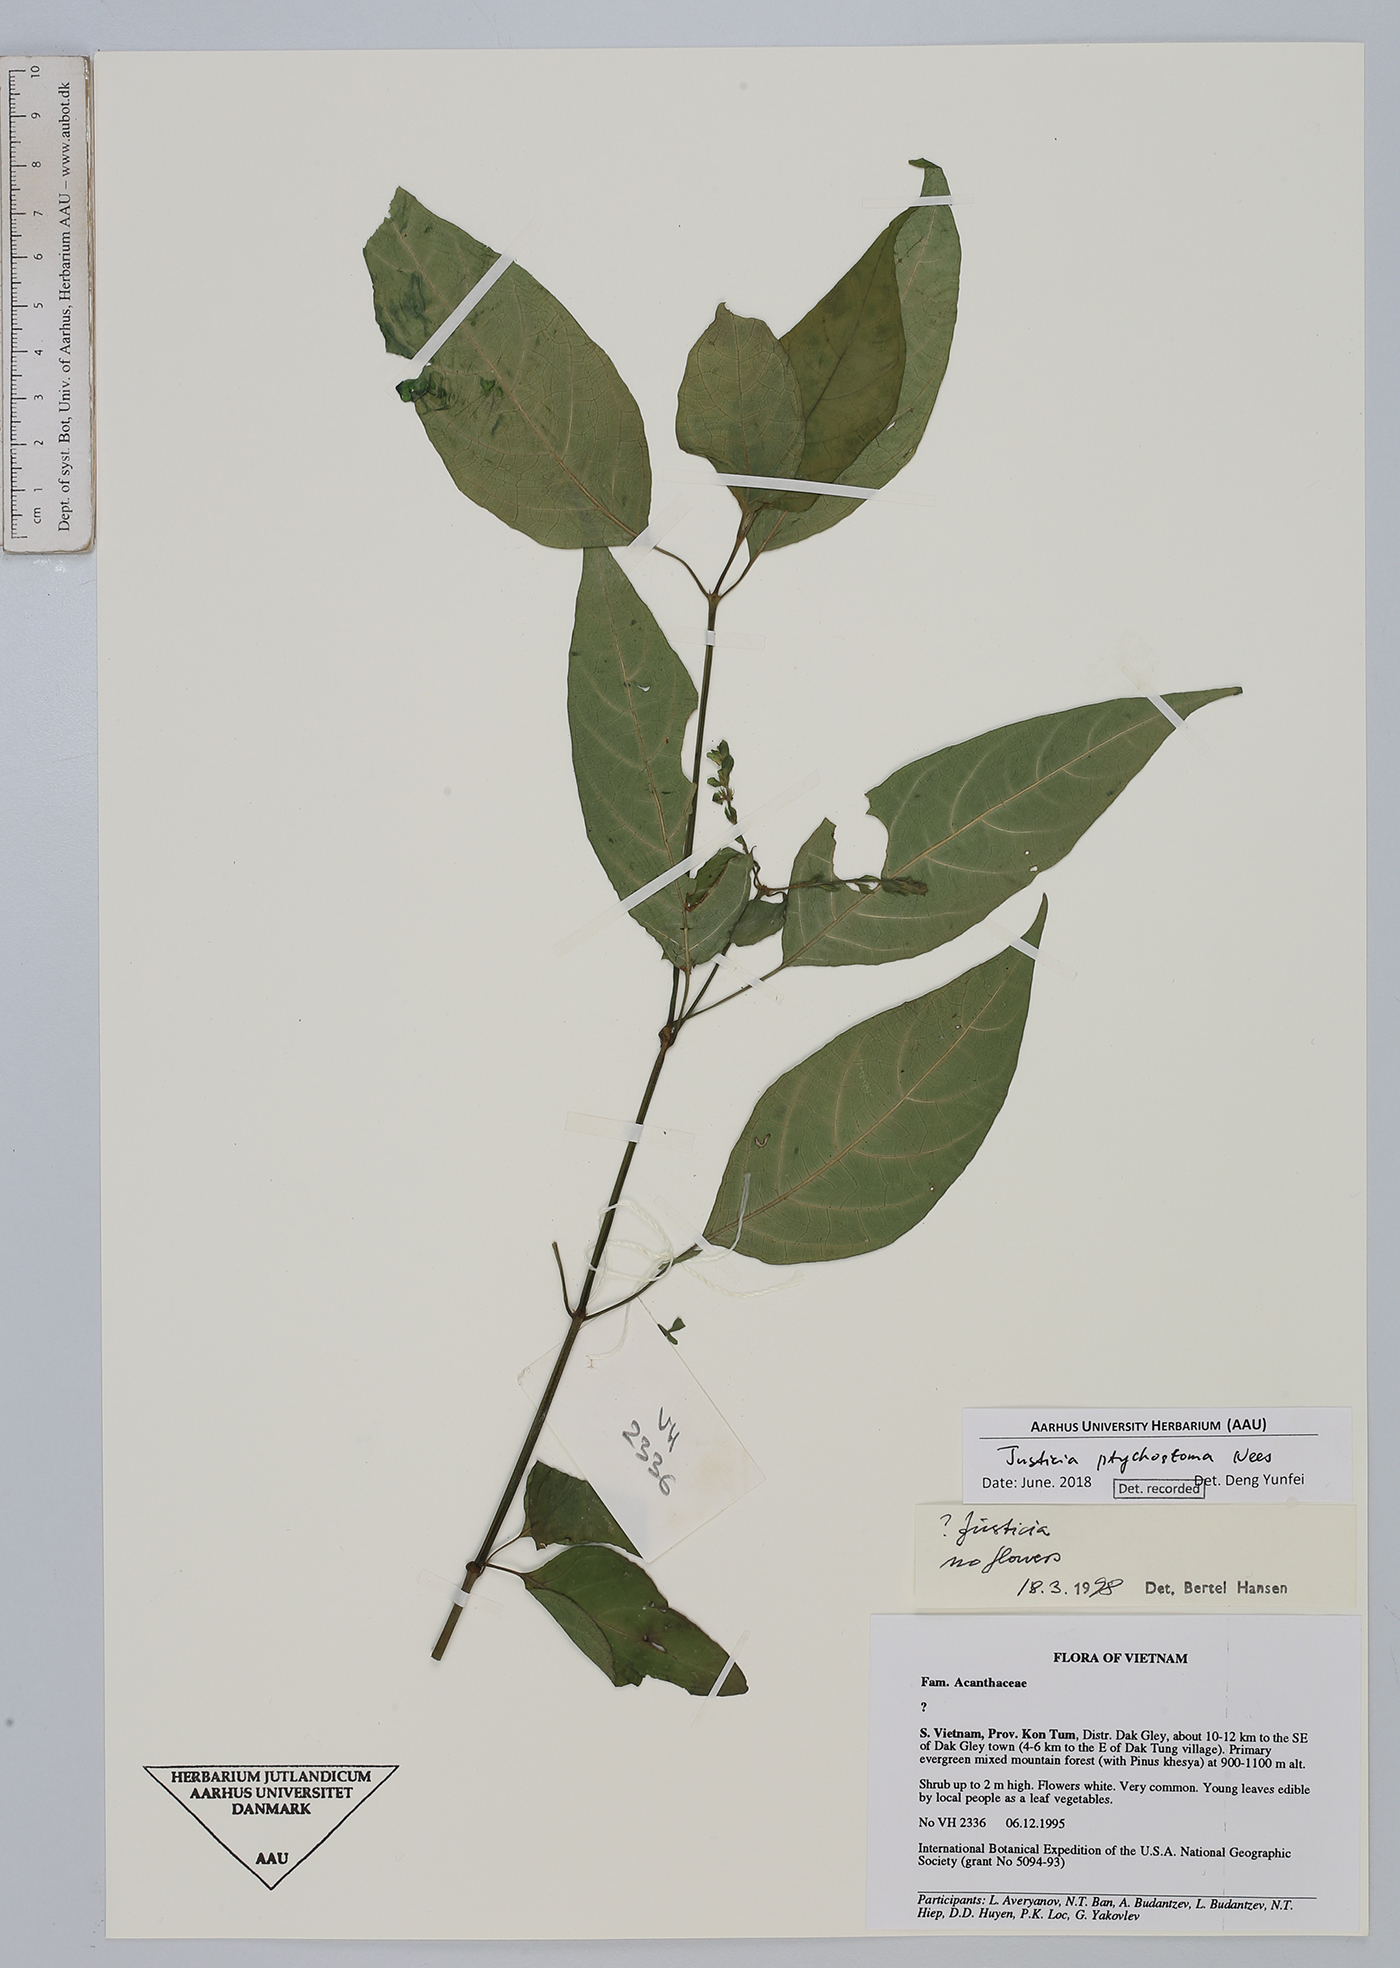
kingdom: Plantae
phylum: Tracheophyta
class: Magnoliopsida
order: Lamiales
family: Acanthaceae
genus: Justicia
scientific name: Justicia sumatrana
